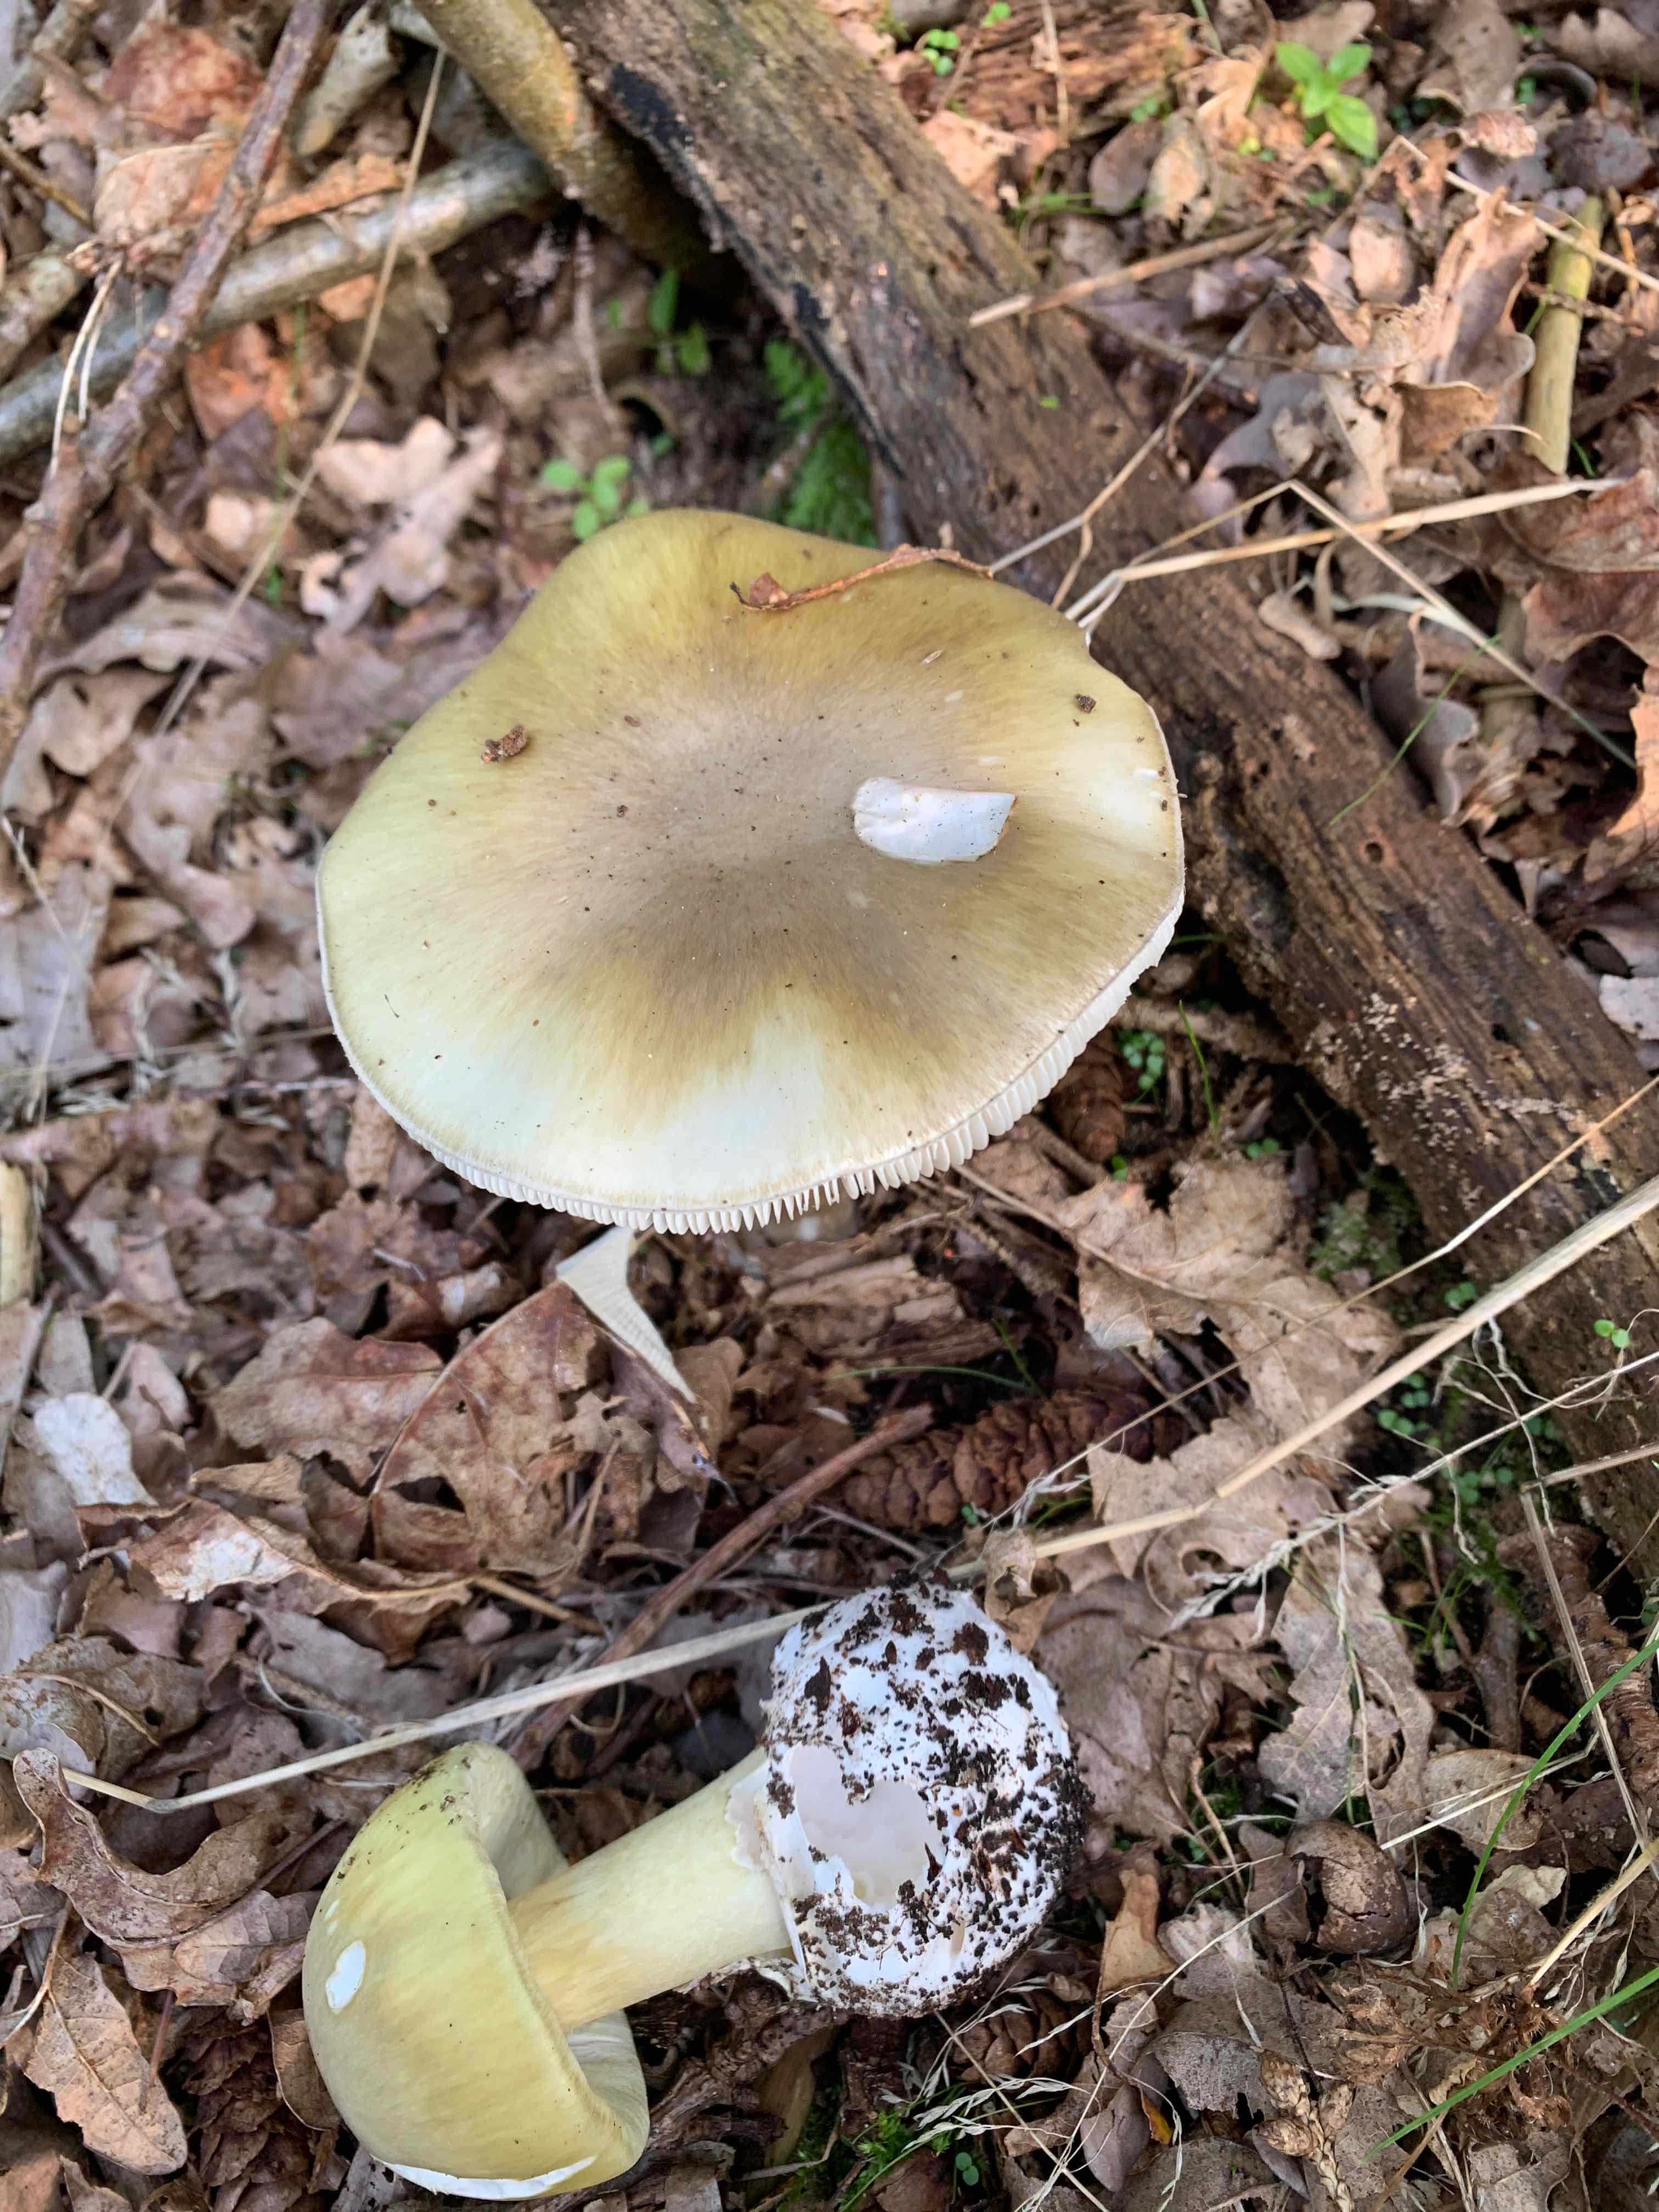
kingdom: Fungi
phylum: Basidiomycota
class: Agaricomycetes
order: Agaricales
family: Amanitaceae
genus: Amanita
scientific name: Amanita phalloides
